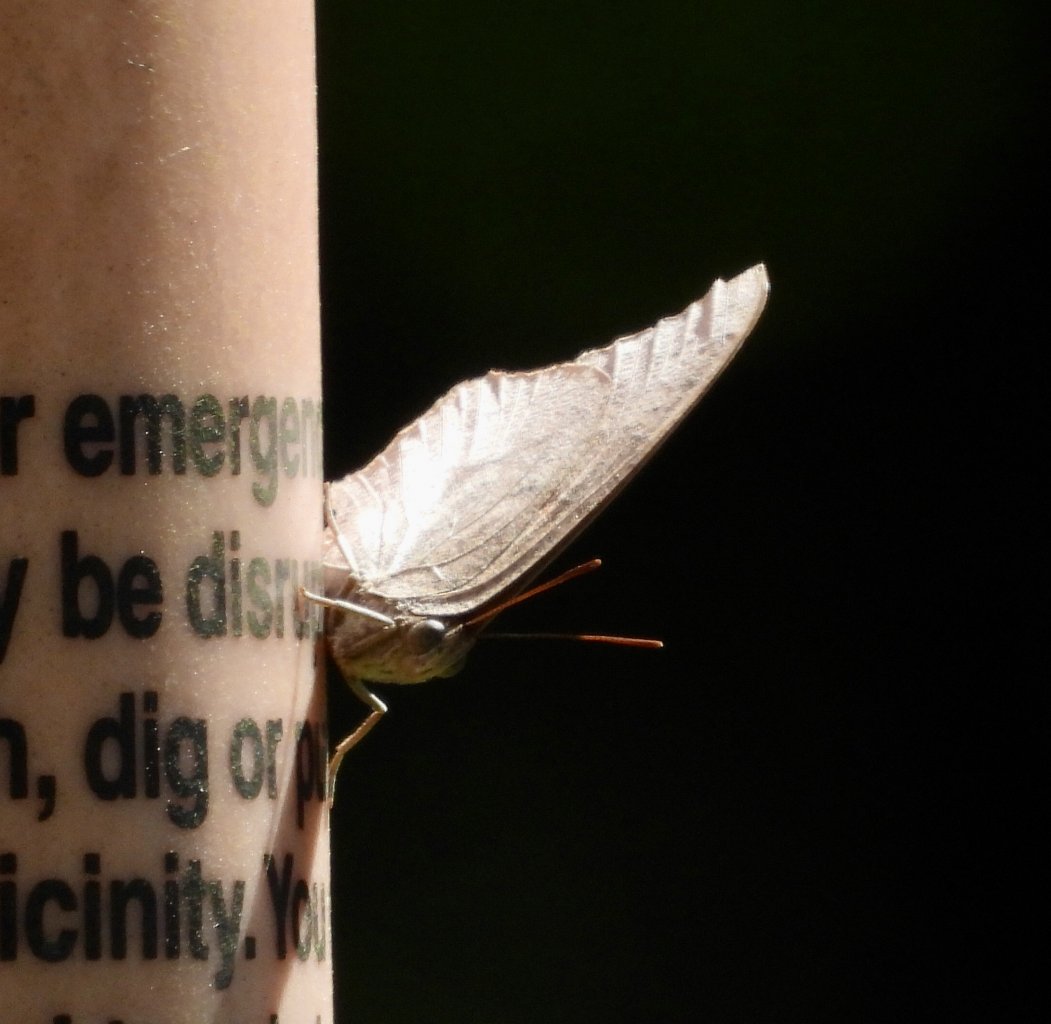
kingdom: Animalia
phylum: Arthropoda
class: Insecta
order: Lepidoptera
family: Nymphalidae
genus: Anaea
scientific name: Anaea andria
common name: Goatweed Leafwing
